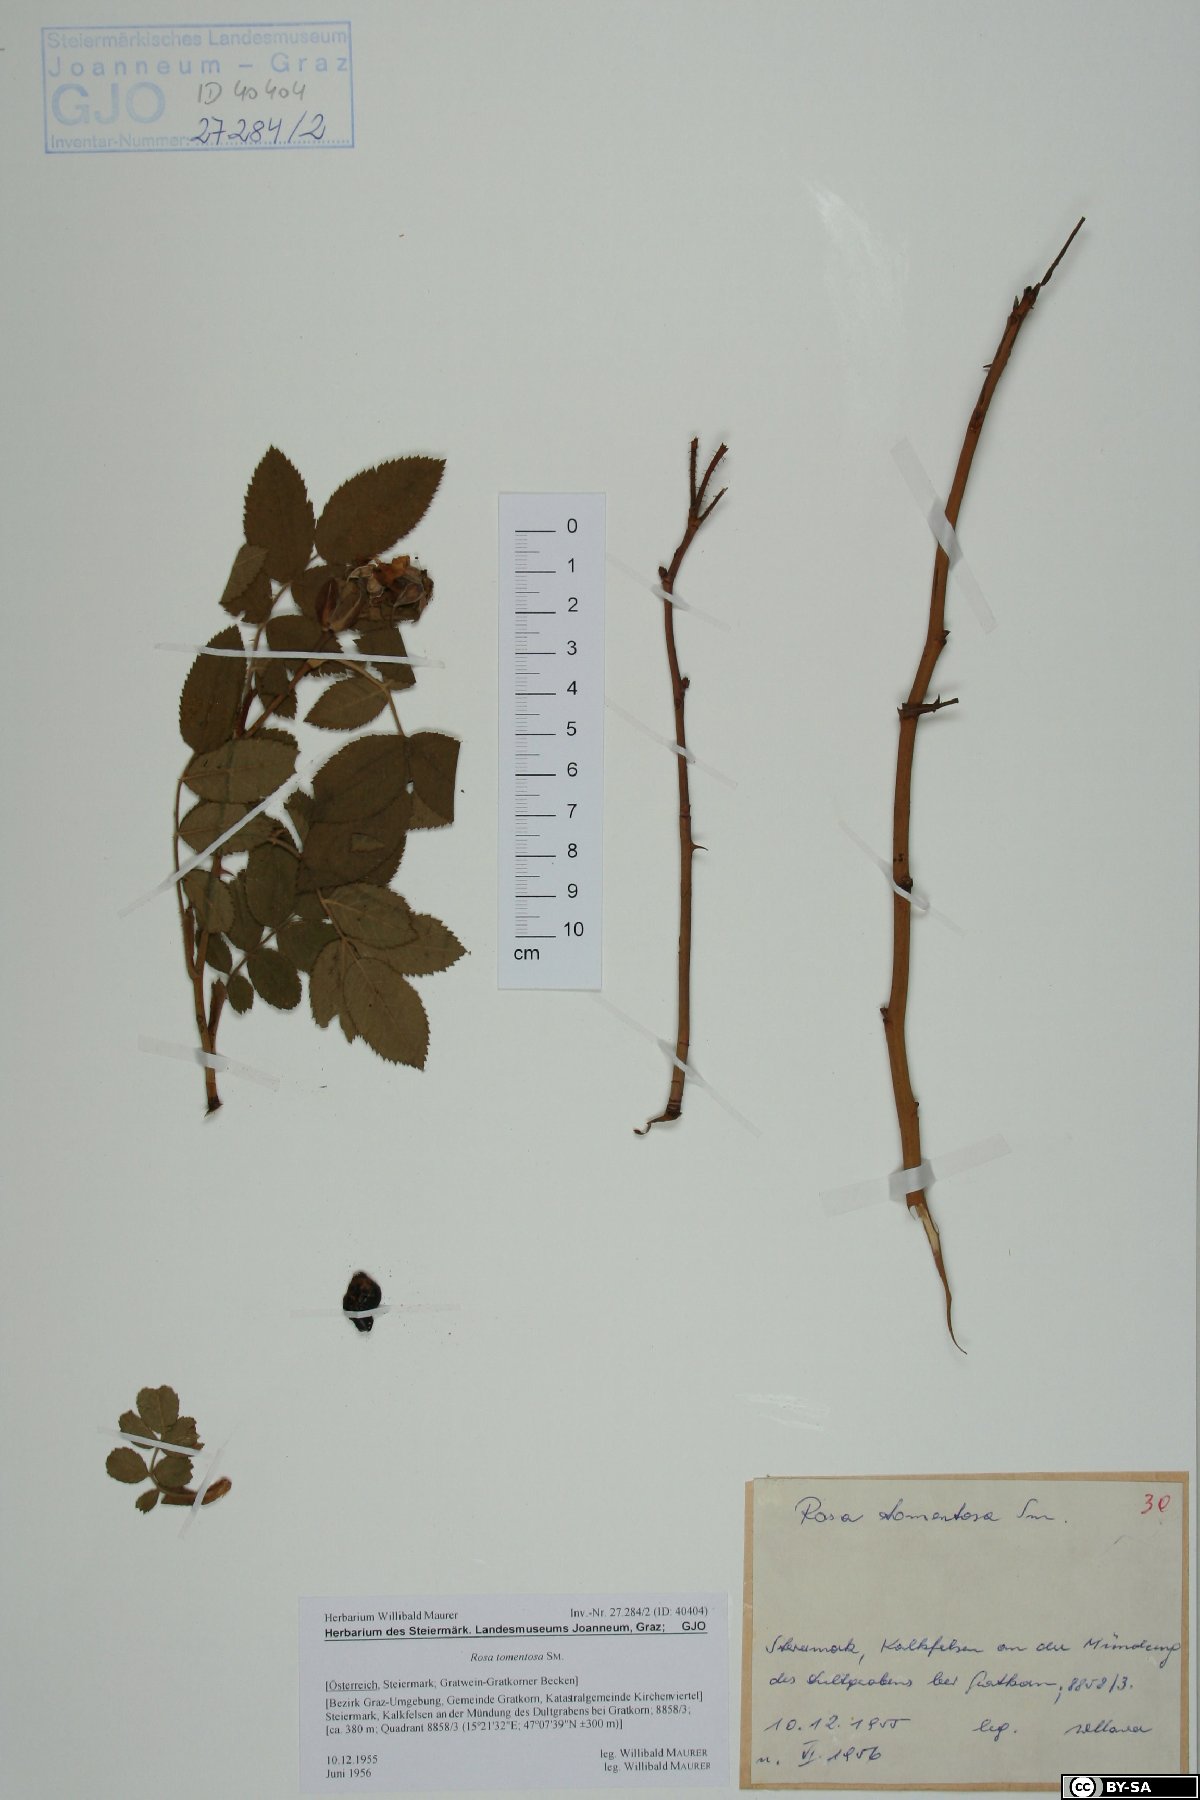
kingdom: Plantae
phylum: Tracheophyta
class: Magnoliopsida
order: Rosales
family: Rosaceae
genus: Rosa
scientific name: Rosa tomentosa
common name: Downy rose
